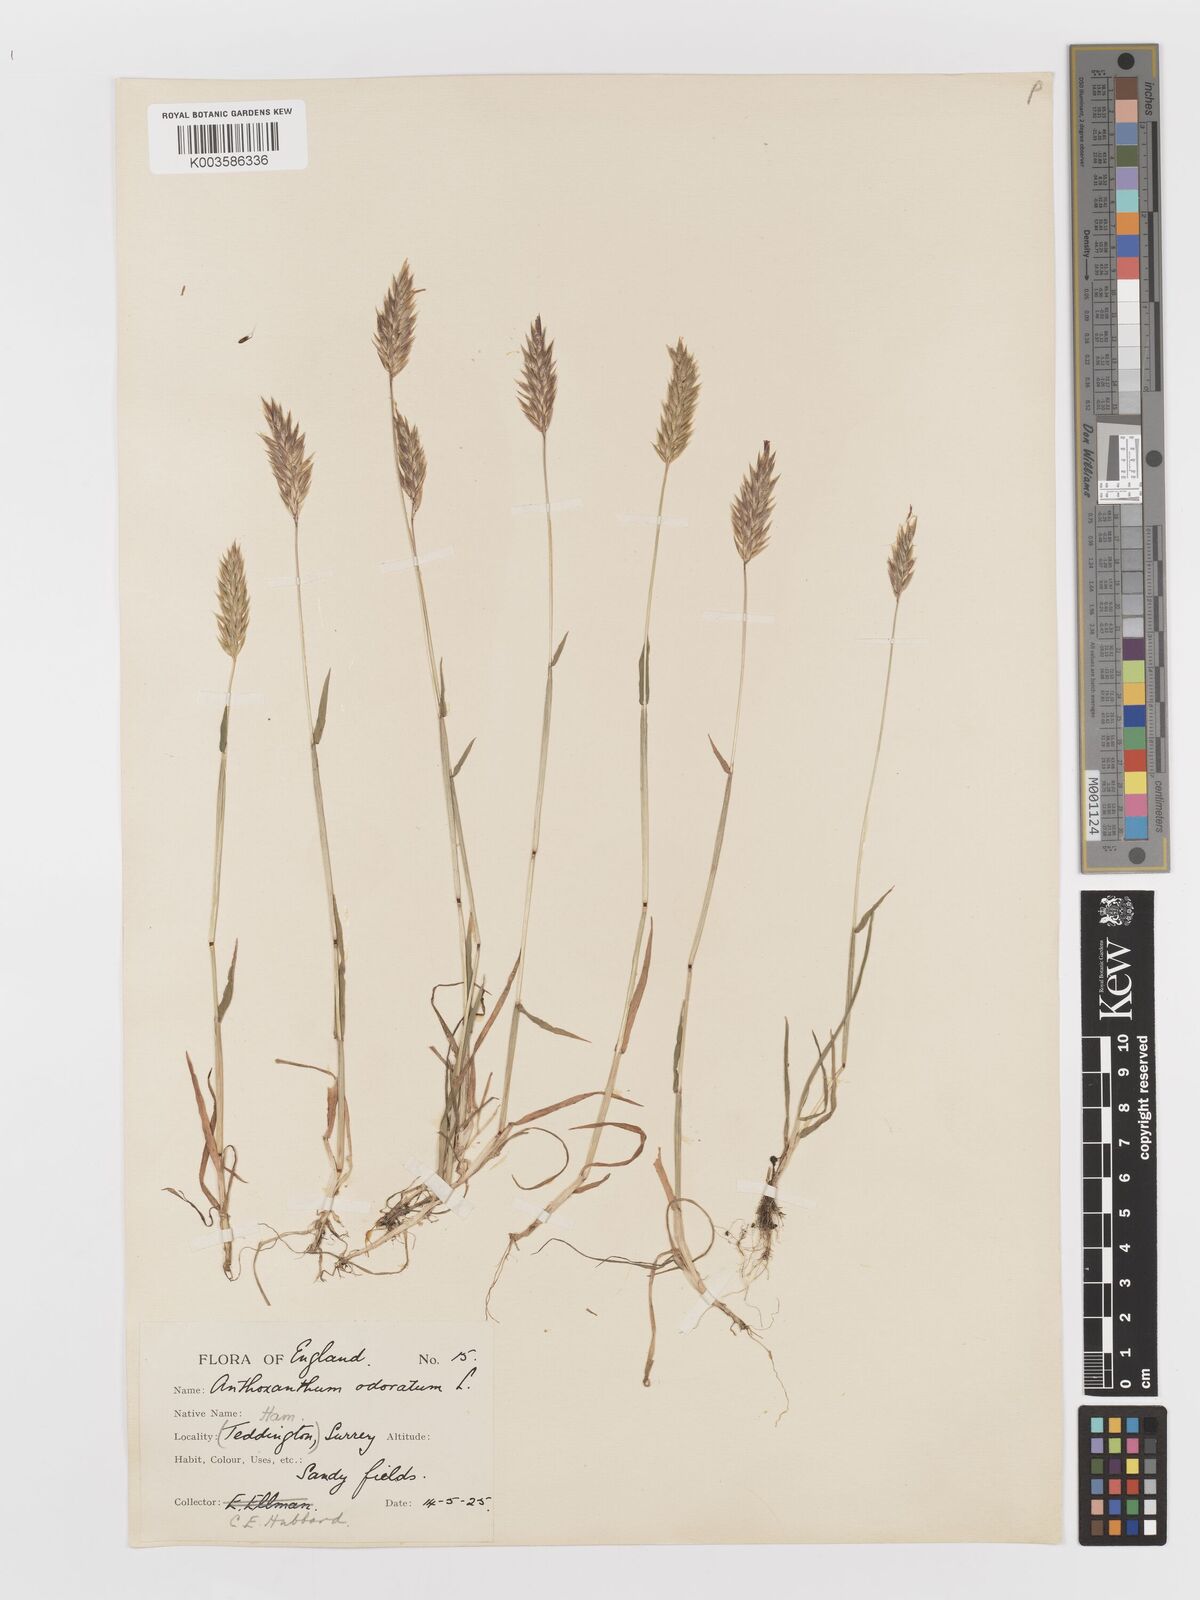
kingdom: Plantae
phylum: Tracheophyta
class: Liliopsida
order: Poales
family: Poaceae
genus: Anthoxanthum
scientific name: Anthoxanthum odoratum
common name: Sweet vernalgrass
